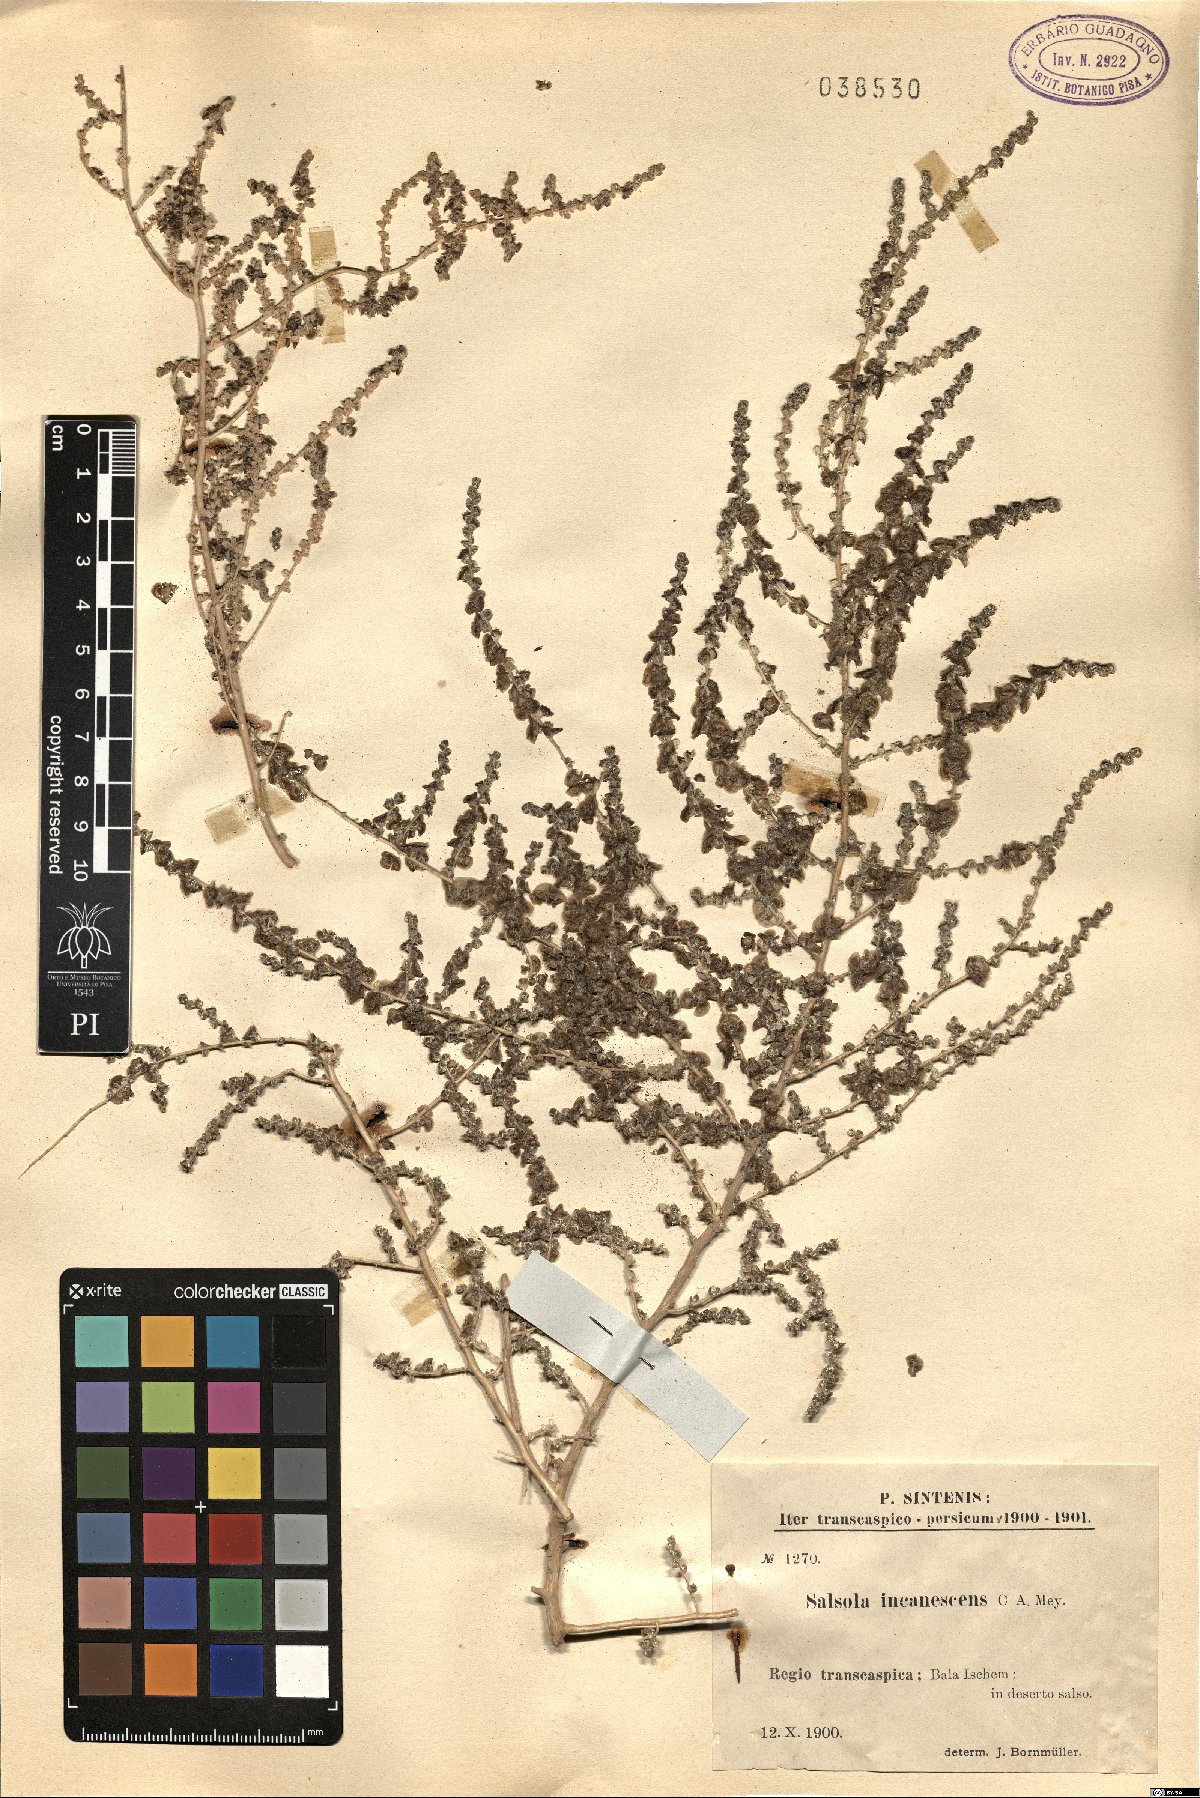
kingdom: Plantae
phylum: Tracheophyta
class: Magnoliopsida
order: Caryophyllales
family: Amaranthaceae
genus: Nitrosalsola
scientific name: Nitrosalsola incanescens
